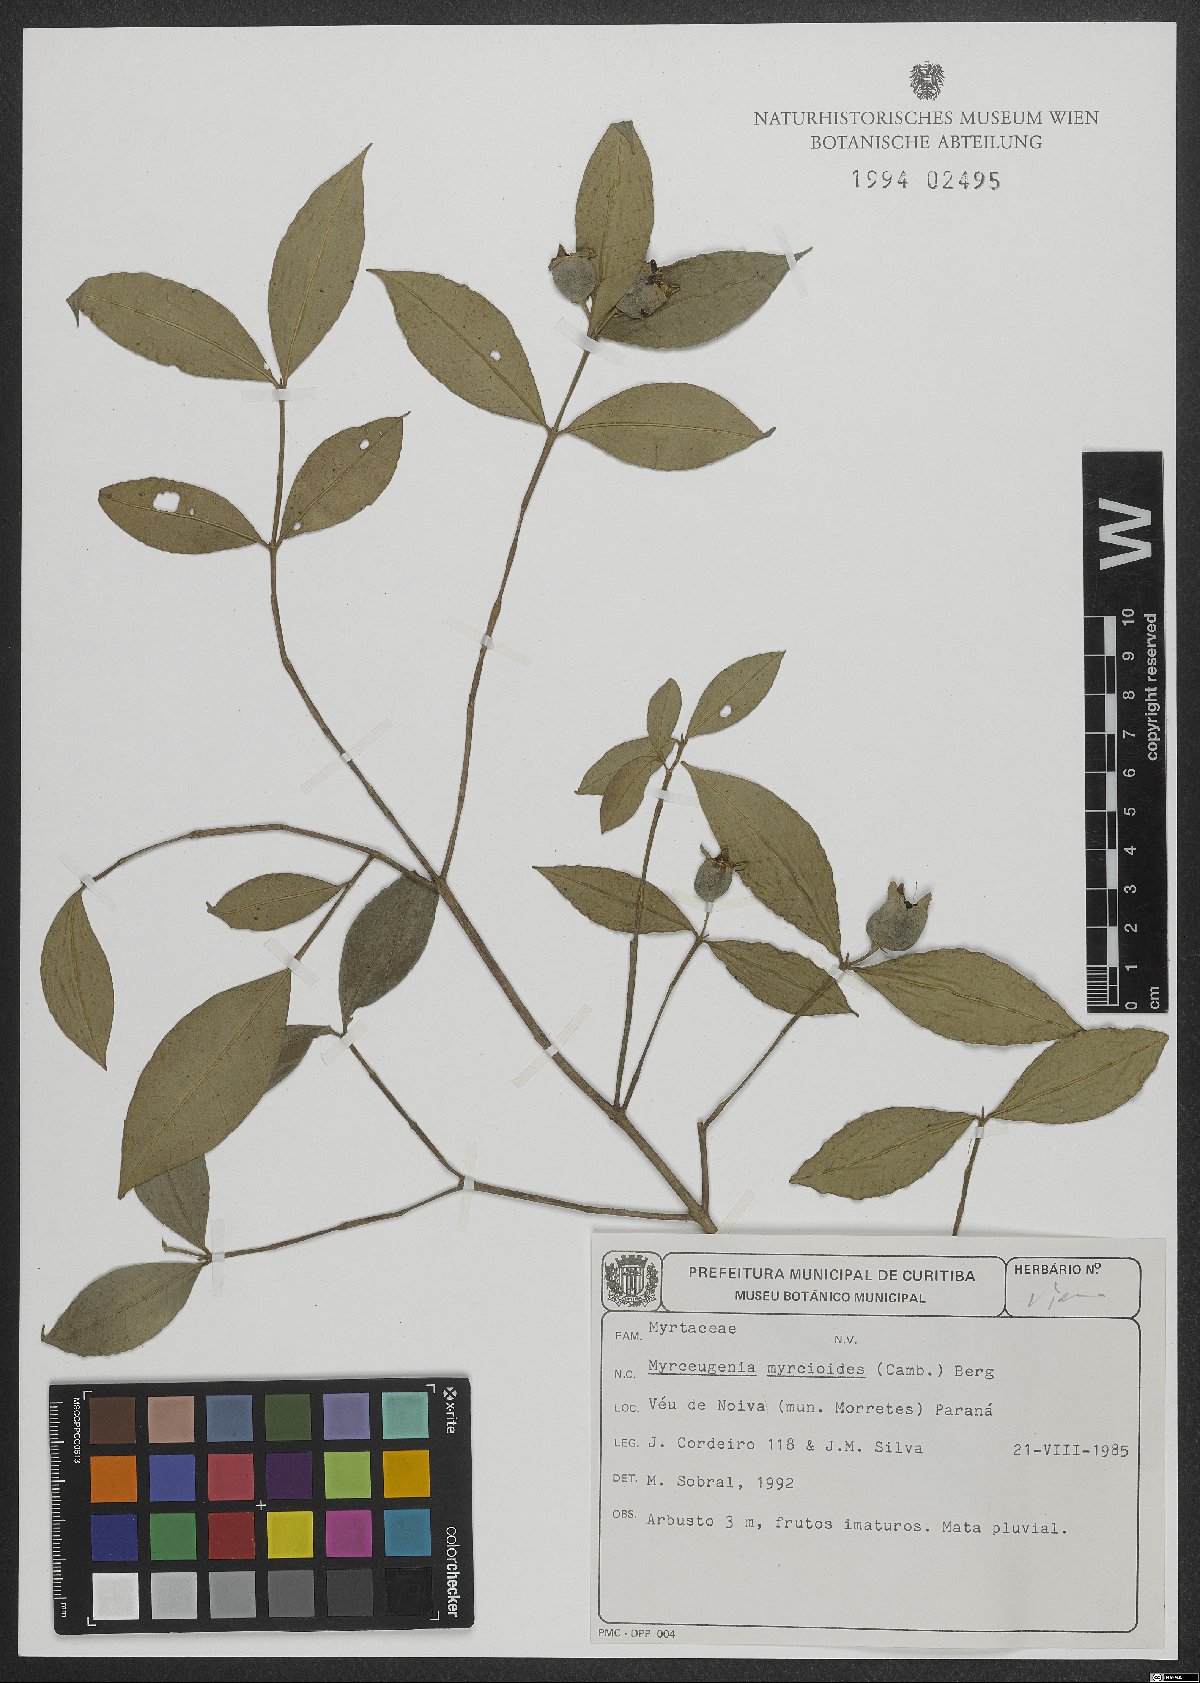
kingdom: Plantae
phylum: Tracheophyta
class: Magnoliopsida
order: Myrtales
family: Myrtaceae
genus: Myrceugenia
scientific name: Myrceugenia myrcioides
